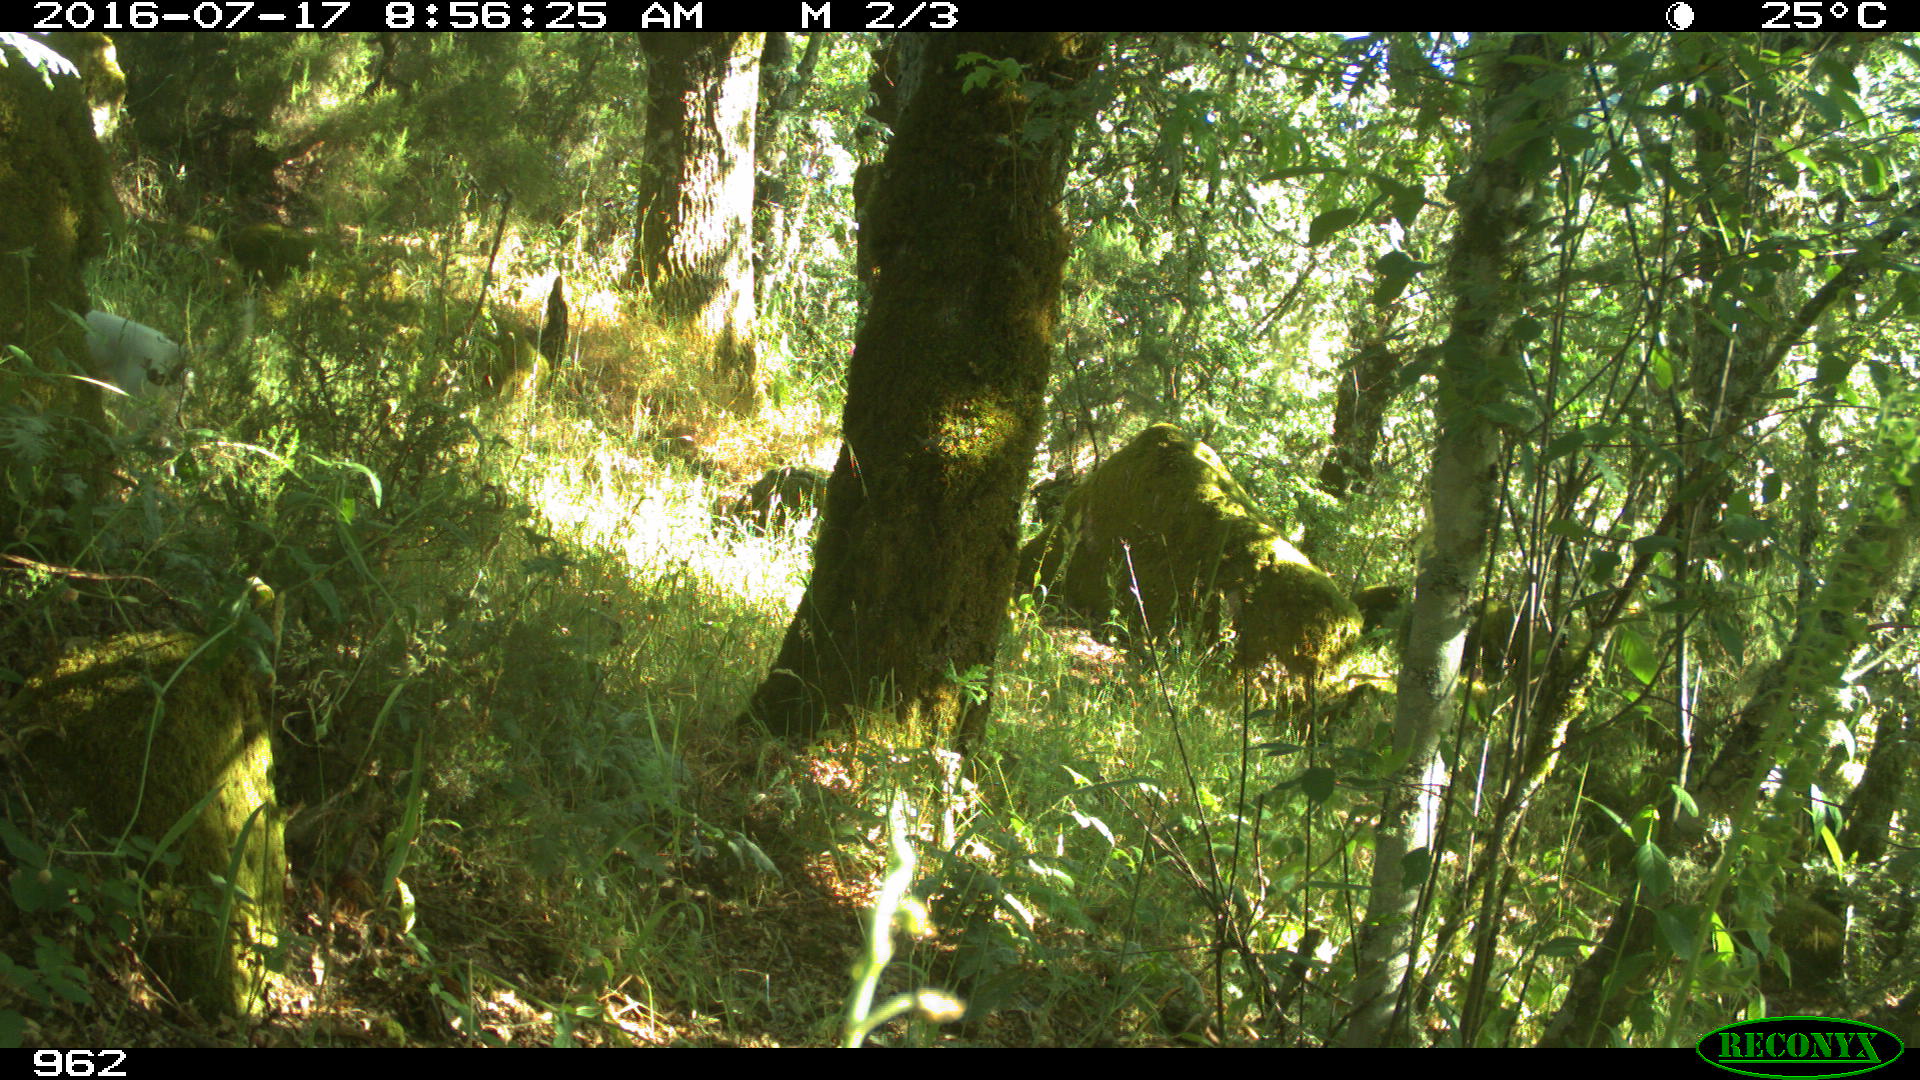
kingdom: Animalia
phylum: Chordata
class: Mammalia
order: Carnivora
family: Canidae
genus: Canis
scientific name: Canis lupus
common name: Gray wolf
